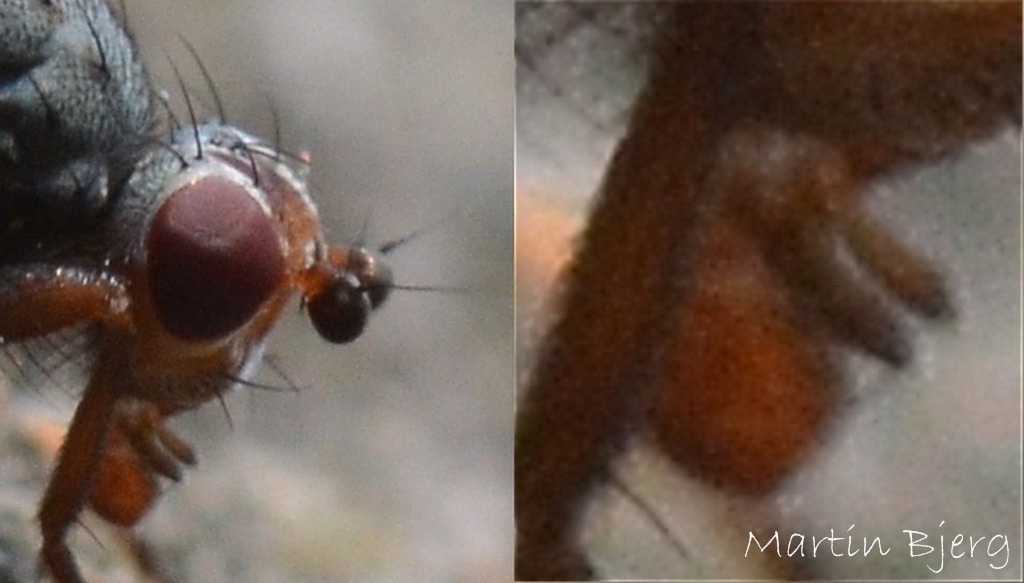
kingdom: Animalia
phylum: Arthropoda
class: Insecta
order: Diptera
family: Heleomyzidae
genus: Scoliocentra
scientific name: Scoliocentra brachypterna
